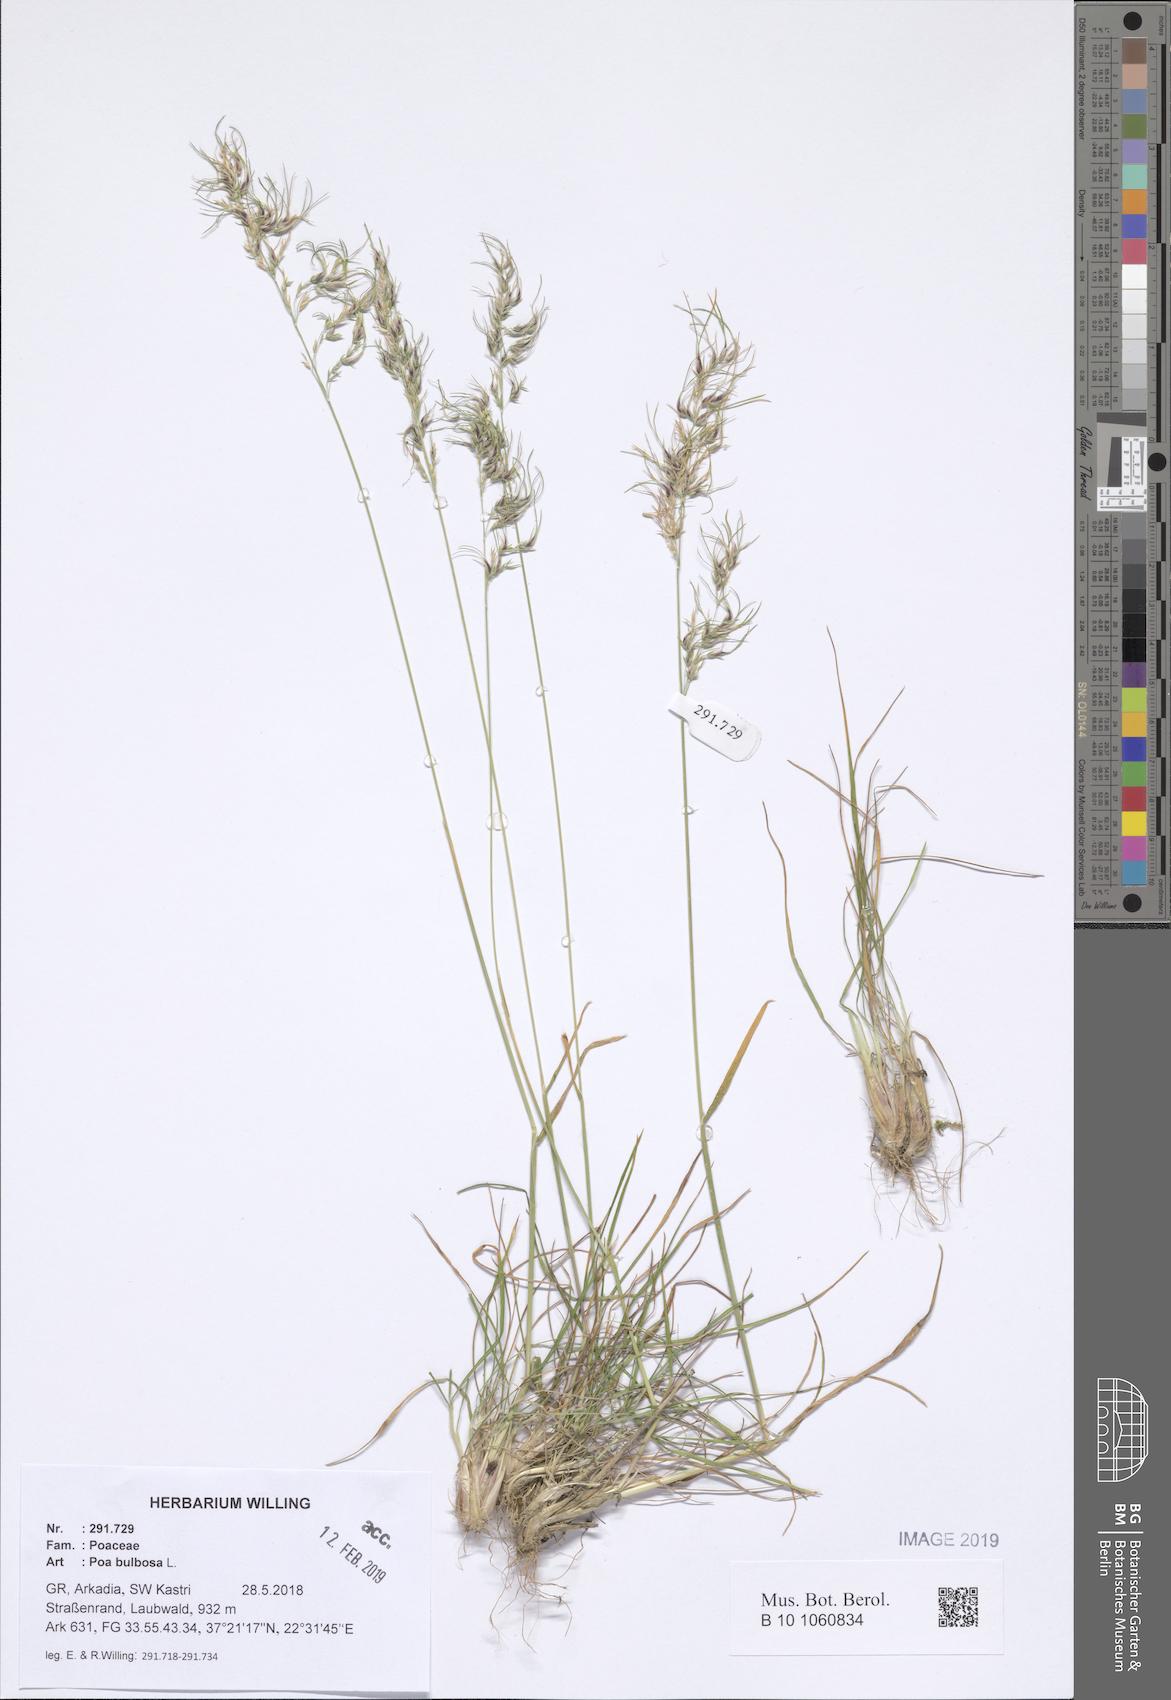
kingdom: Plantae
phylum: Tracheophyta
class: Liliopsida
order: Poales
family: Poaceae
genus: Poa
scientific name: Poa bulbosa
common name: Bulbous bluegrass
